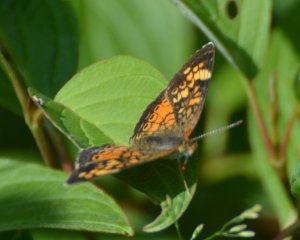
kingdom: Animalia
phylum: Arthropoda
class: Insecta
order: Lepidoptera
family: Nymphalidae
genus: Phyciodes
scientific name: Phyciodes tharos
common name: Northern Crescent
